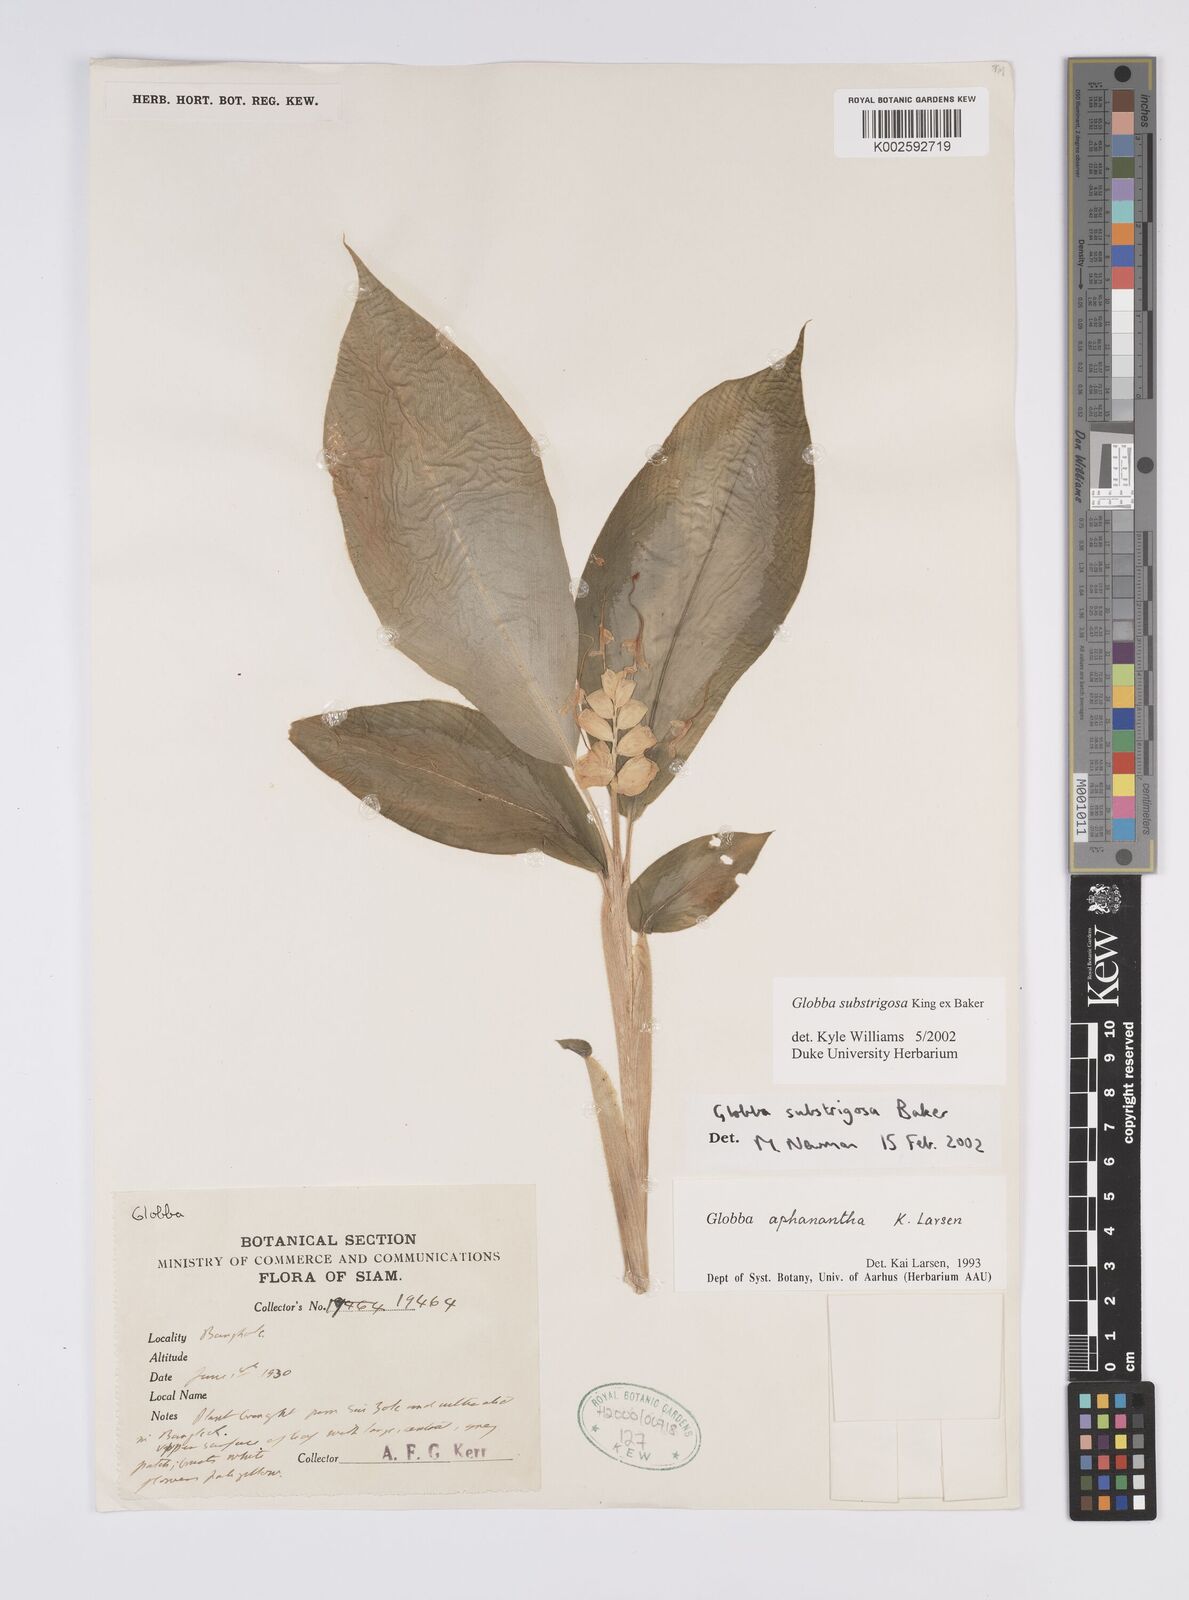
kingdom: Plantae
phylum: Tracheophyta
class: Liliopsida
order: Zingiberales
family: Zingiberaceae
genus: Globba
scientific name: Globba substrigosa
